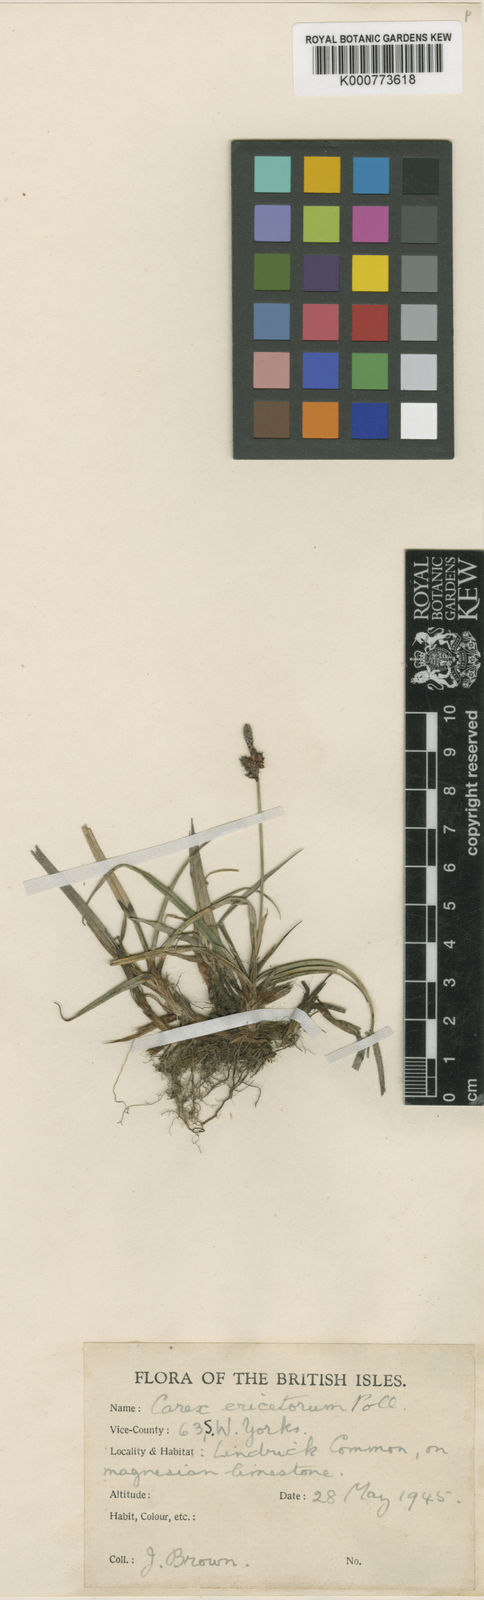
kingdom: Plantae
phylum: Tracheophyta
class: Liliopsida
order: Poales
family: Cyperaceae
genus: Carex
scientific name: Carex ericetorum
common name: Rare spring-sedge
